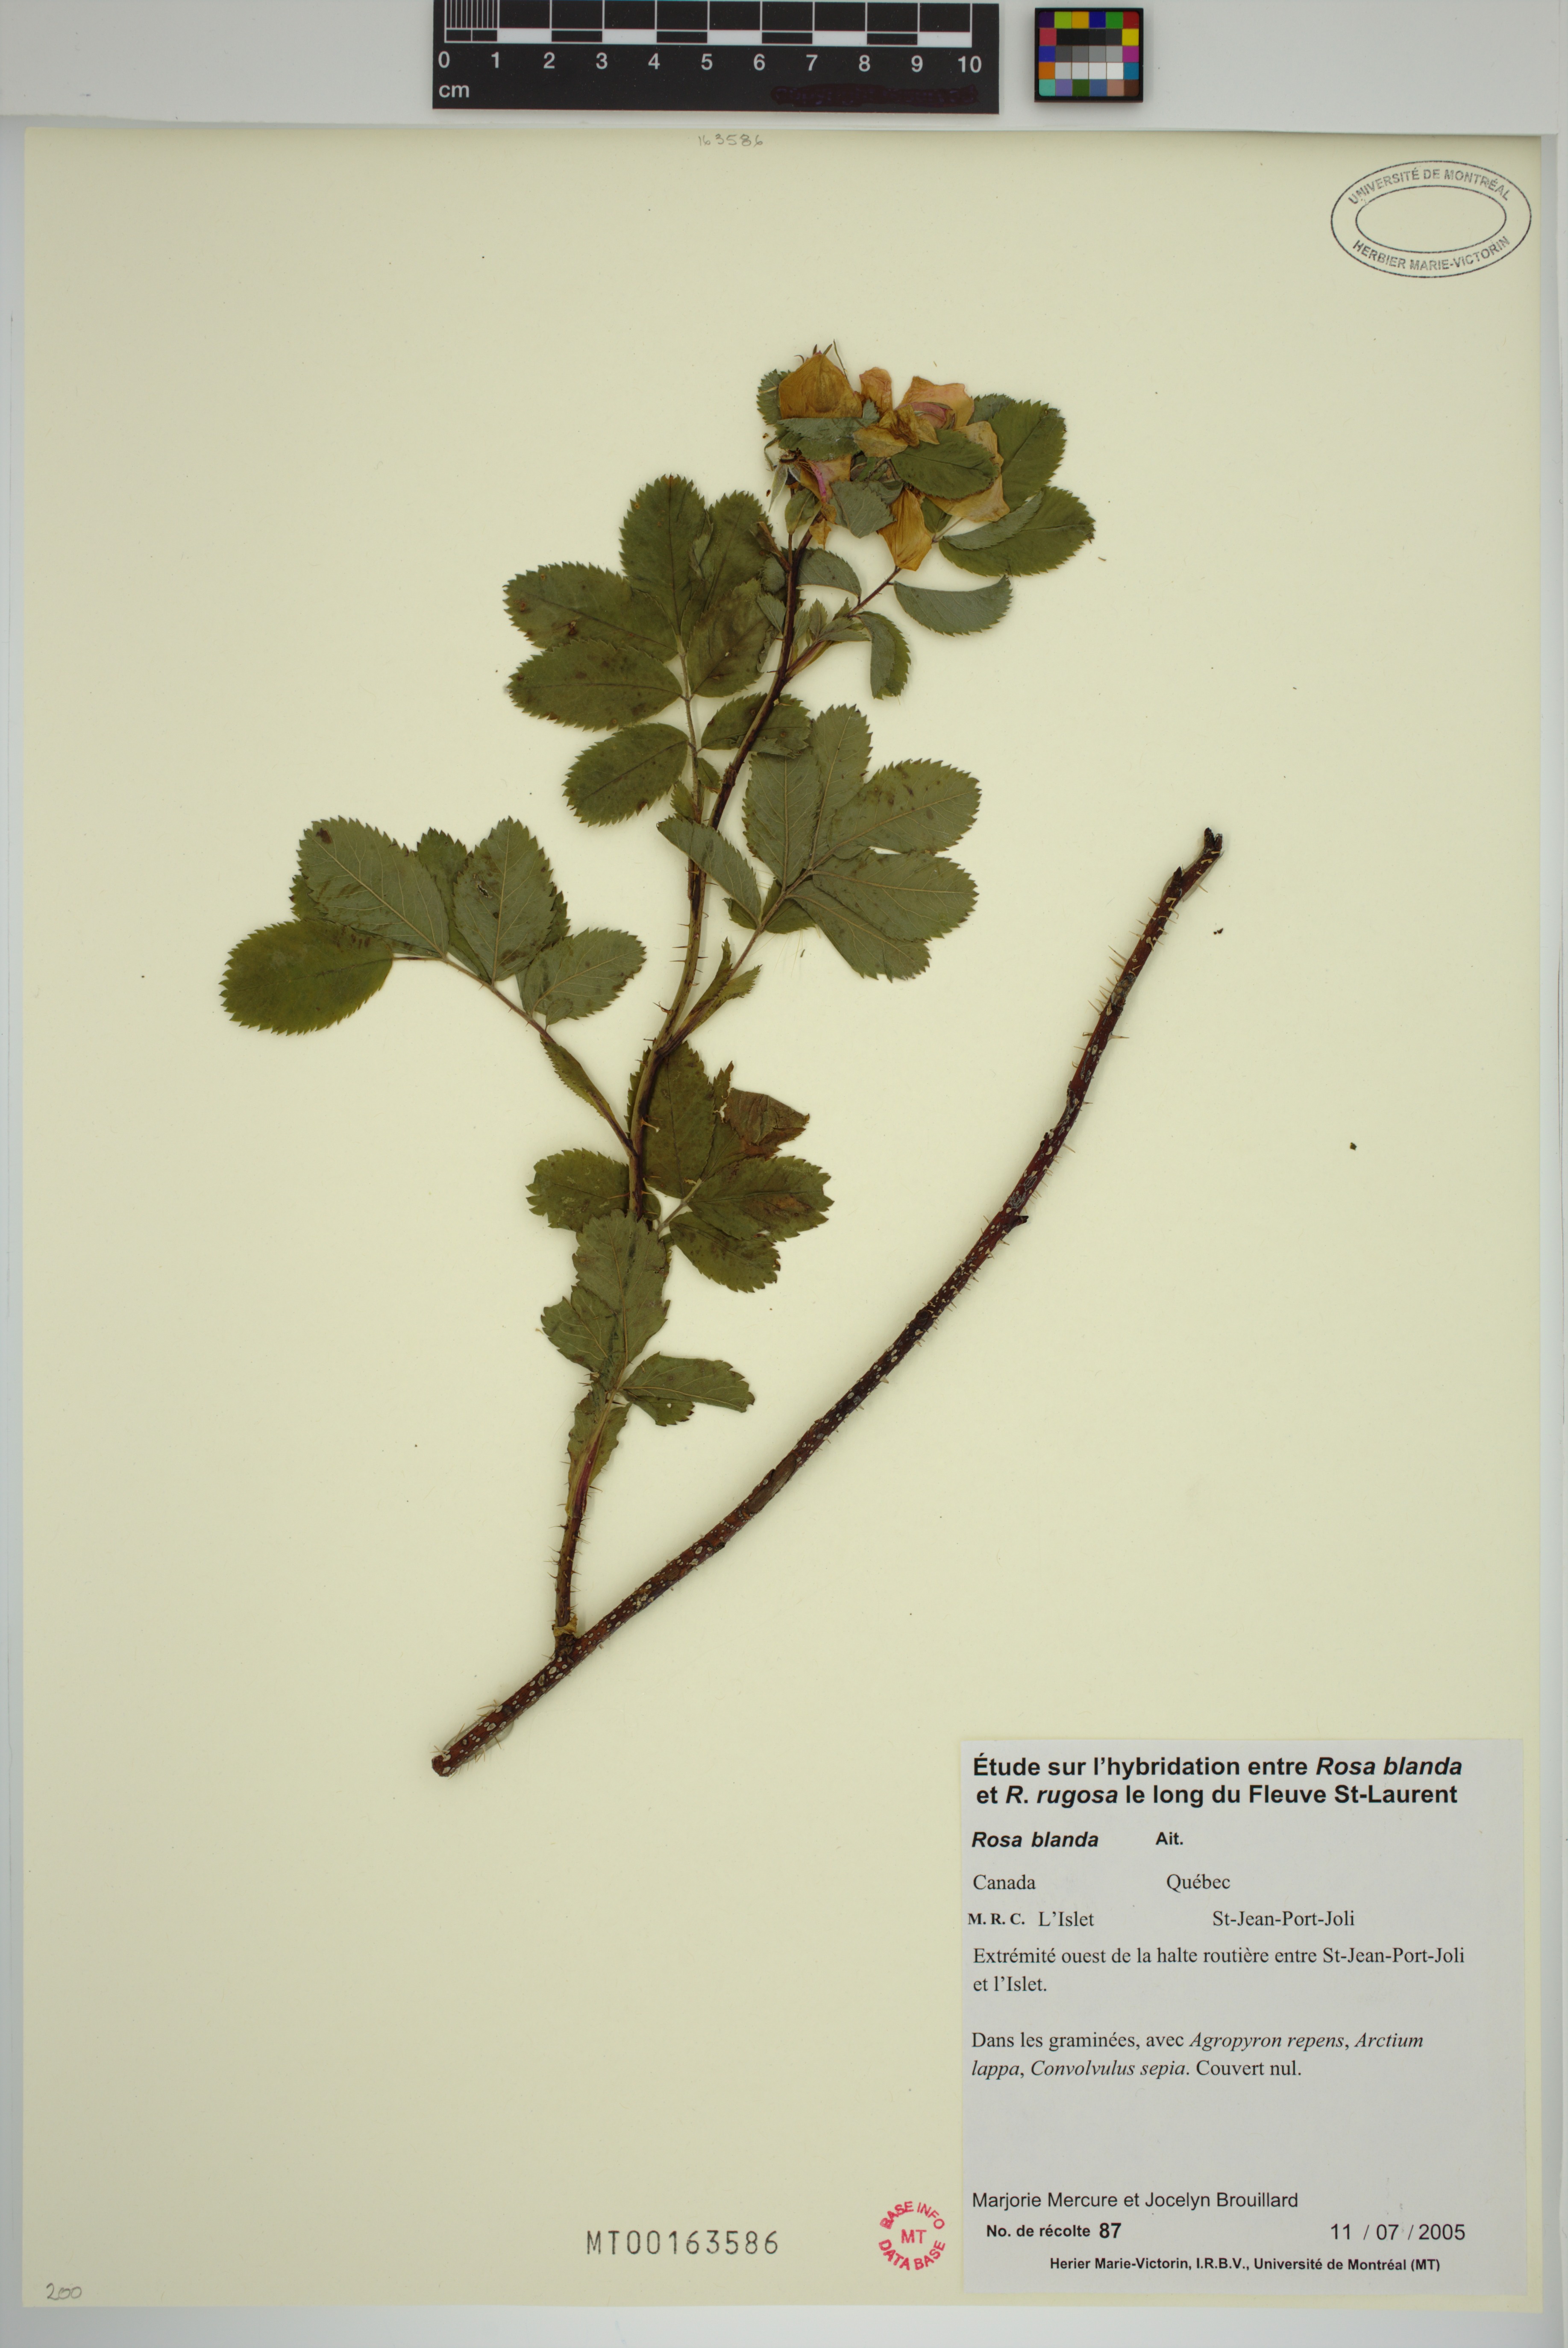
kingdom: Plantae
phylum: Tracheophyta
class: Magnoliopsida
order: Rosales
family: Rosaceae
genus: Rosa
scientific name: Rosa blanda
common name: Smooth rose
